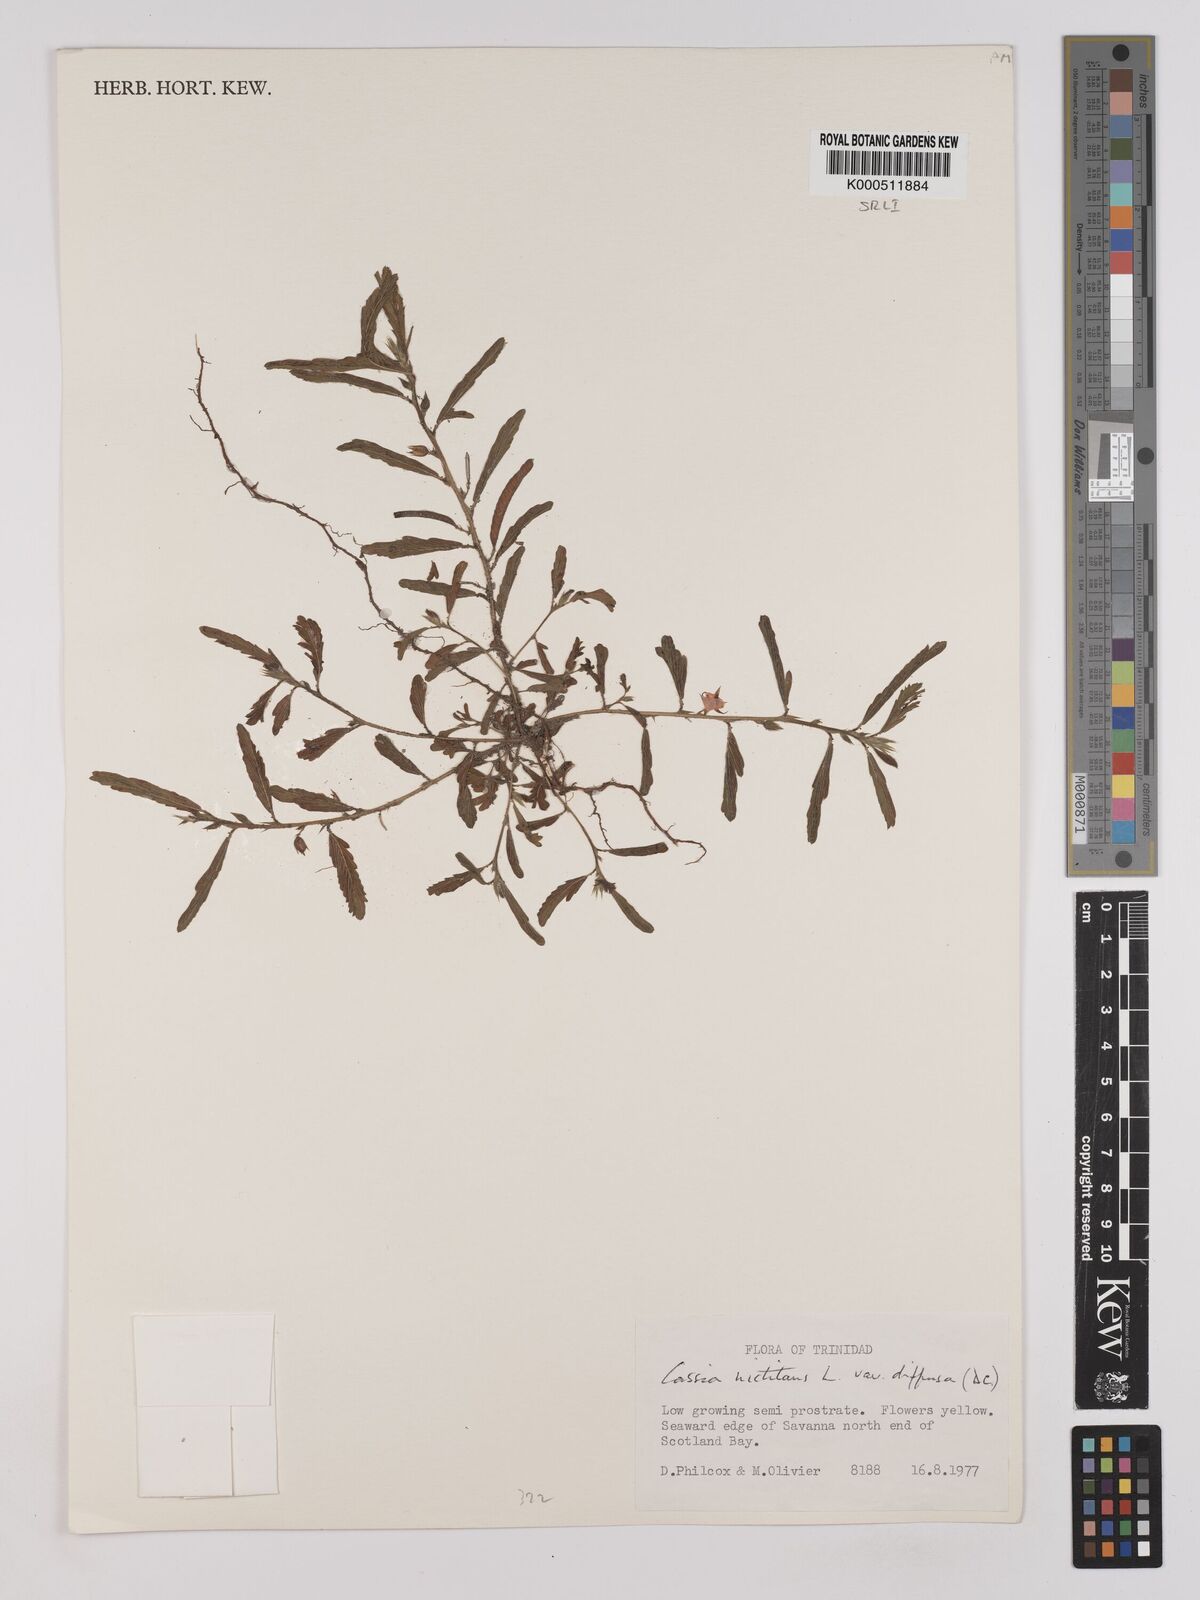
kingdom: Plantae
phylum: Tracheophyta
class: Magnoliopsida
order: Fabales
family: Fabaceae
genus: Chamaecrista
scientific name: Chamaecrista nictitans
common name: Sensitive cassia
